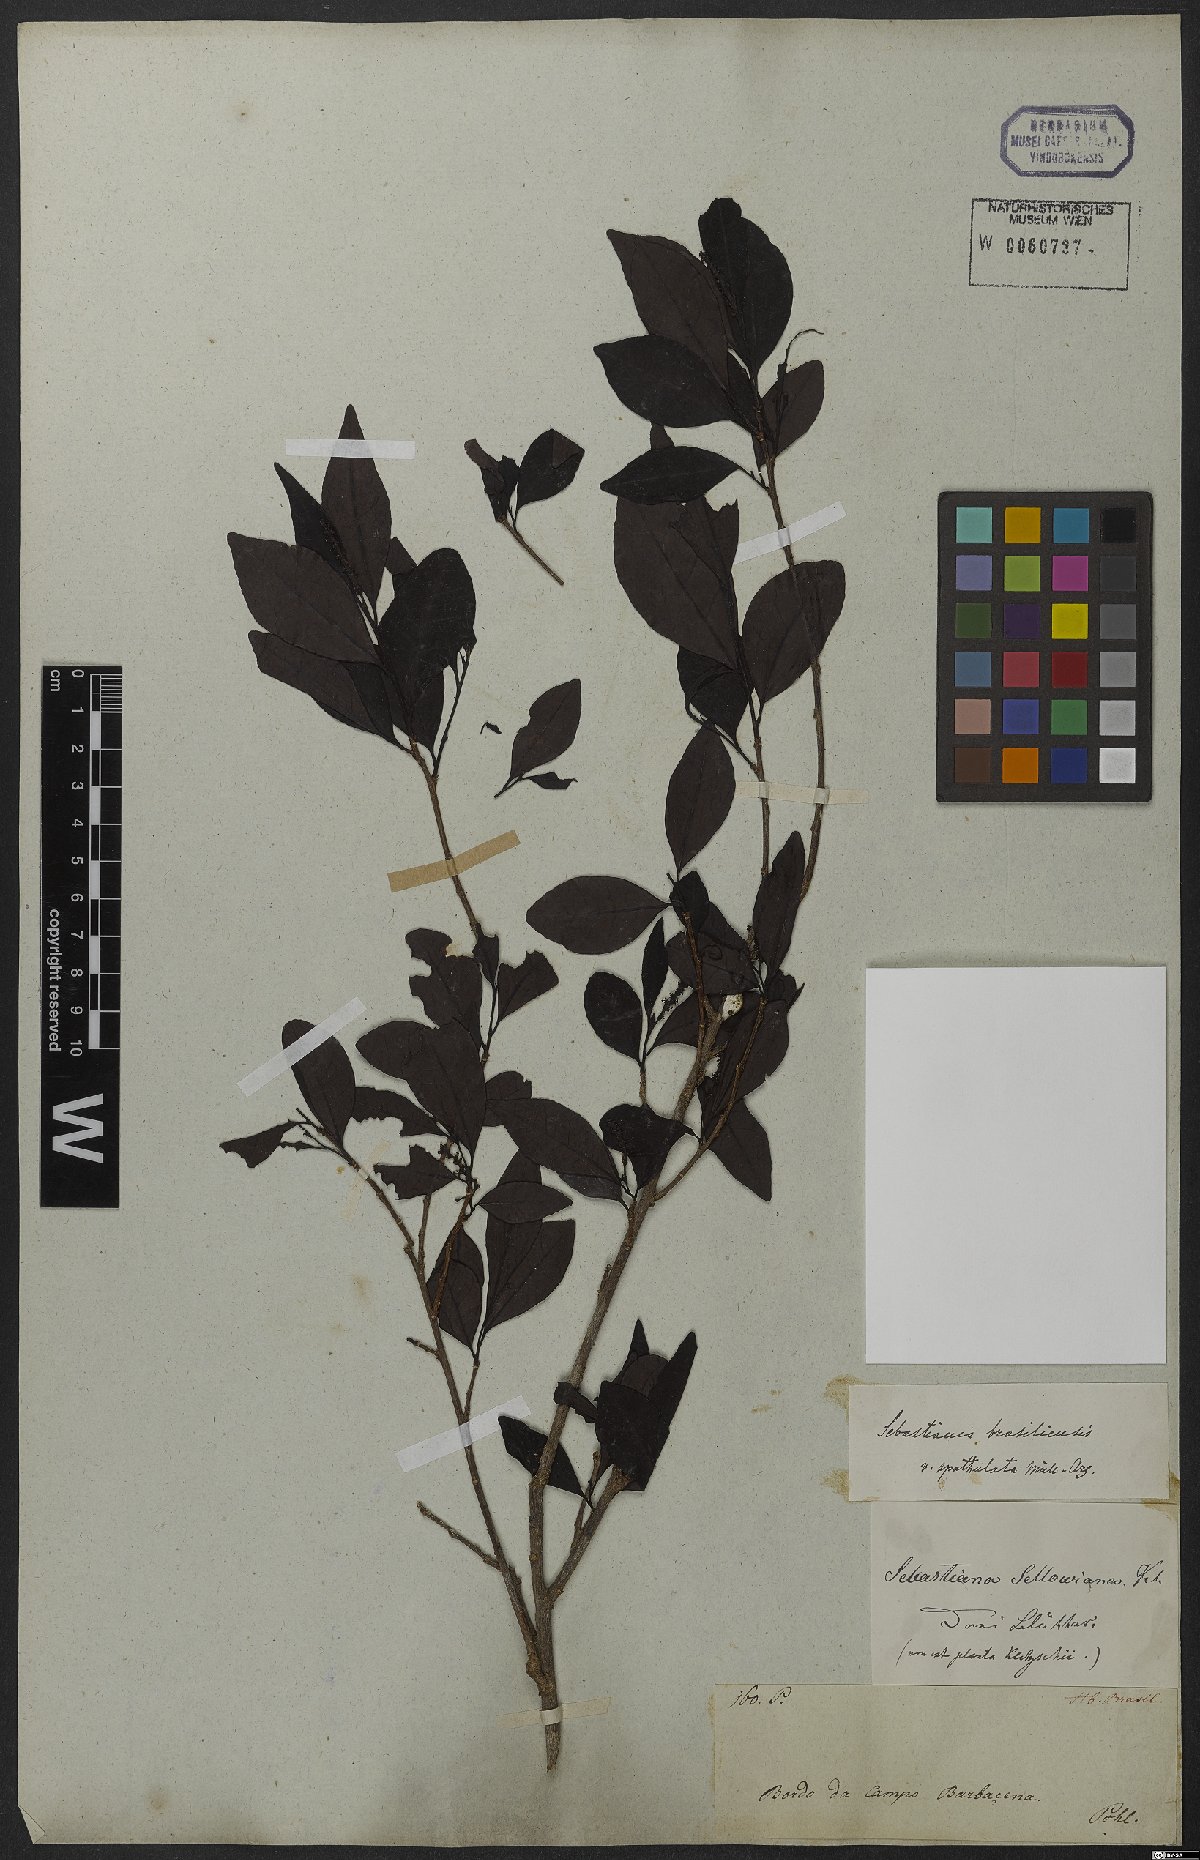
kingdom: Plantae
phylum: Tracheophyta
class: Magnoliopsida
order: Malpighiales
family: Euphorbiaceae
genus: Sebastiania
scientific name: Sebastiania ramosissima
